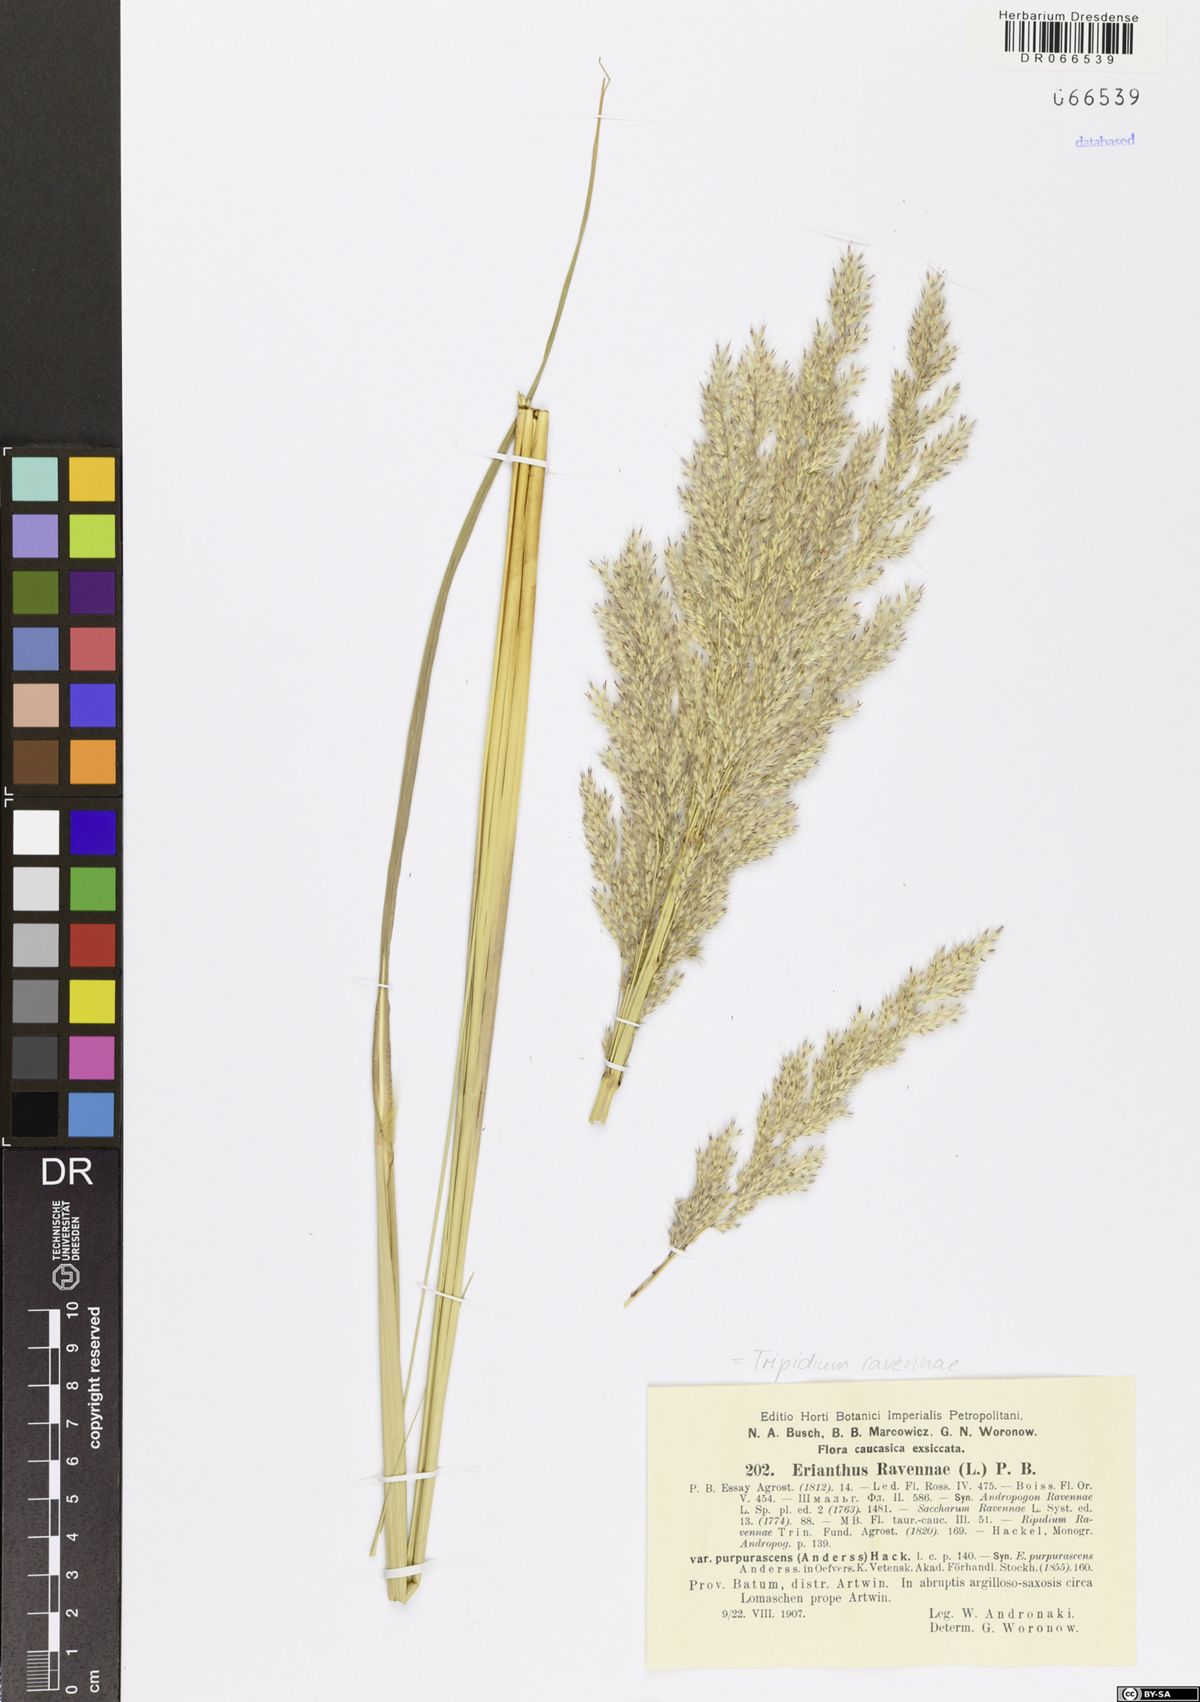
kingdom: Plantae
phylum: Tracheophyta
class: Liliopsida
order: Poales
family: Poaceae
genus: Tripidium
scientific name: Tripidium ravennae
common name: Ravenna grass
